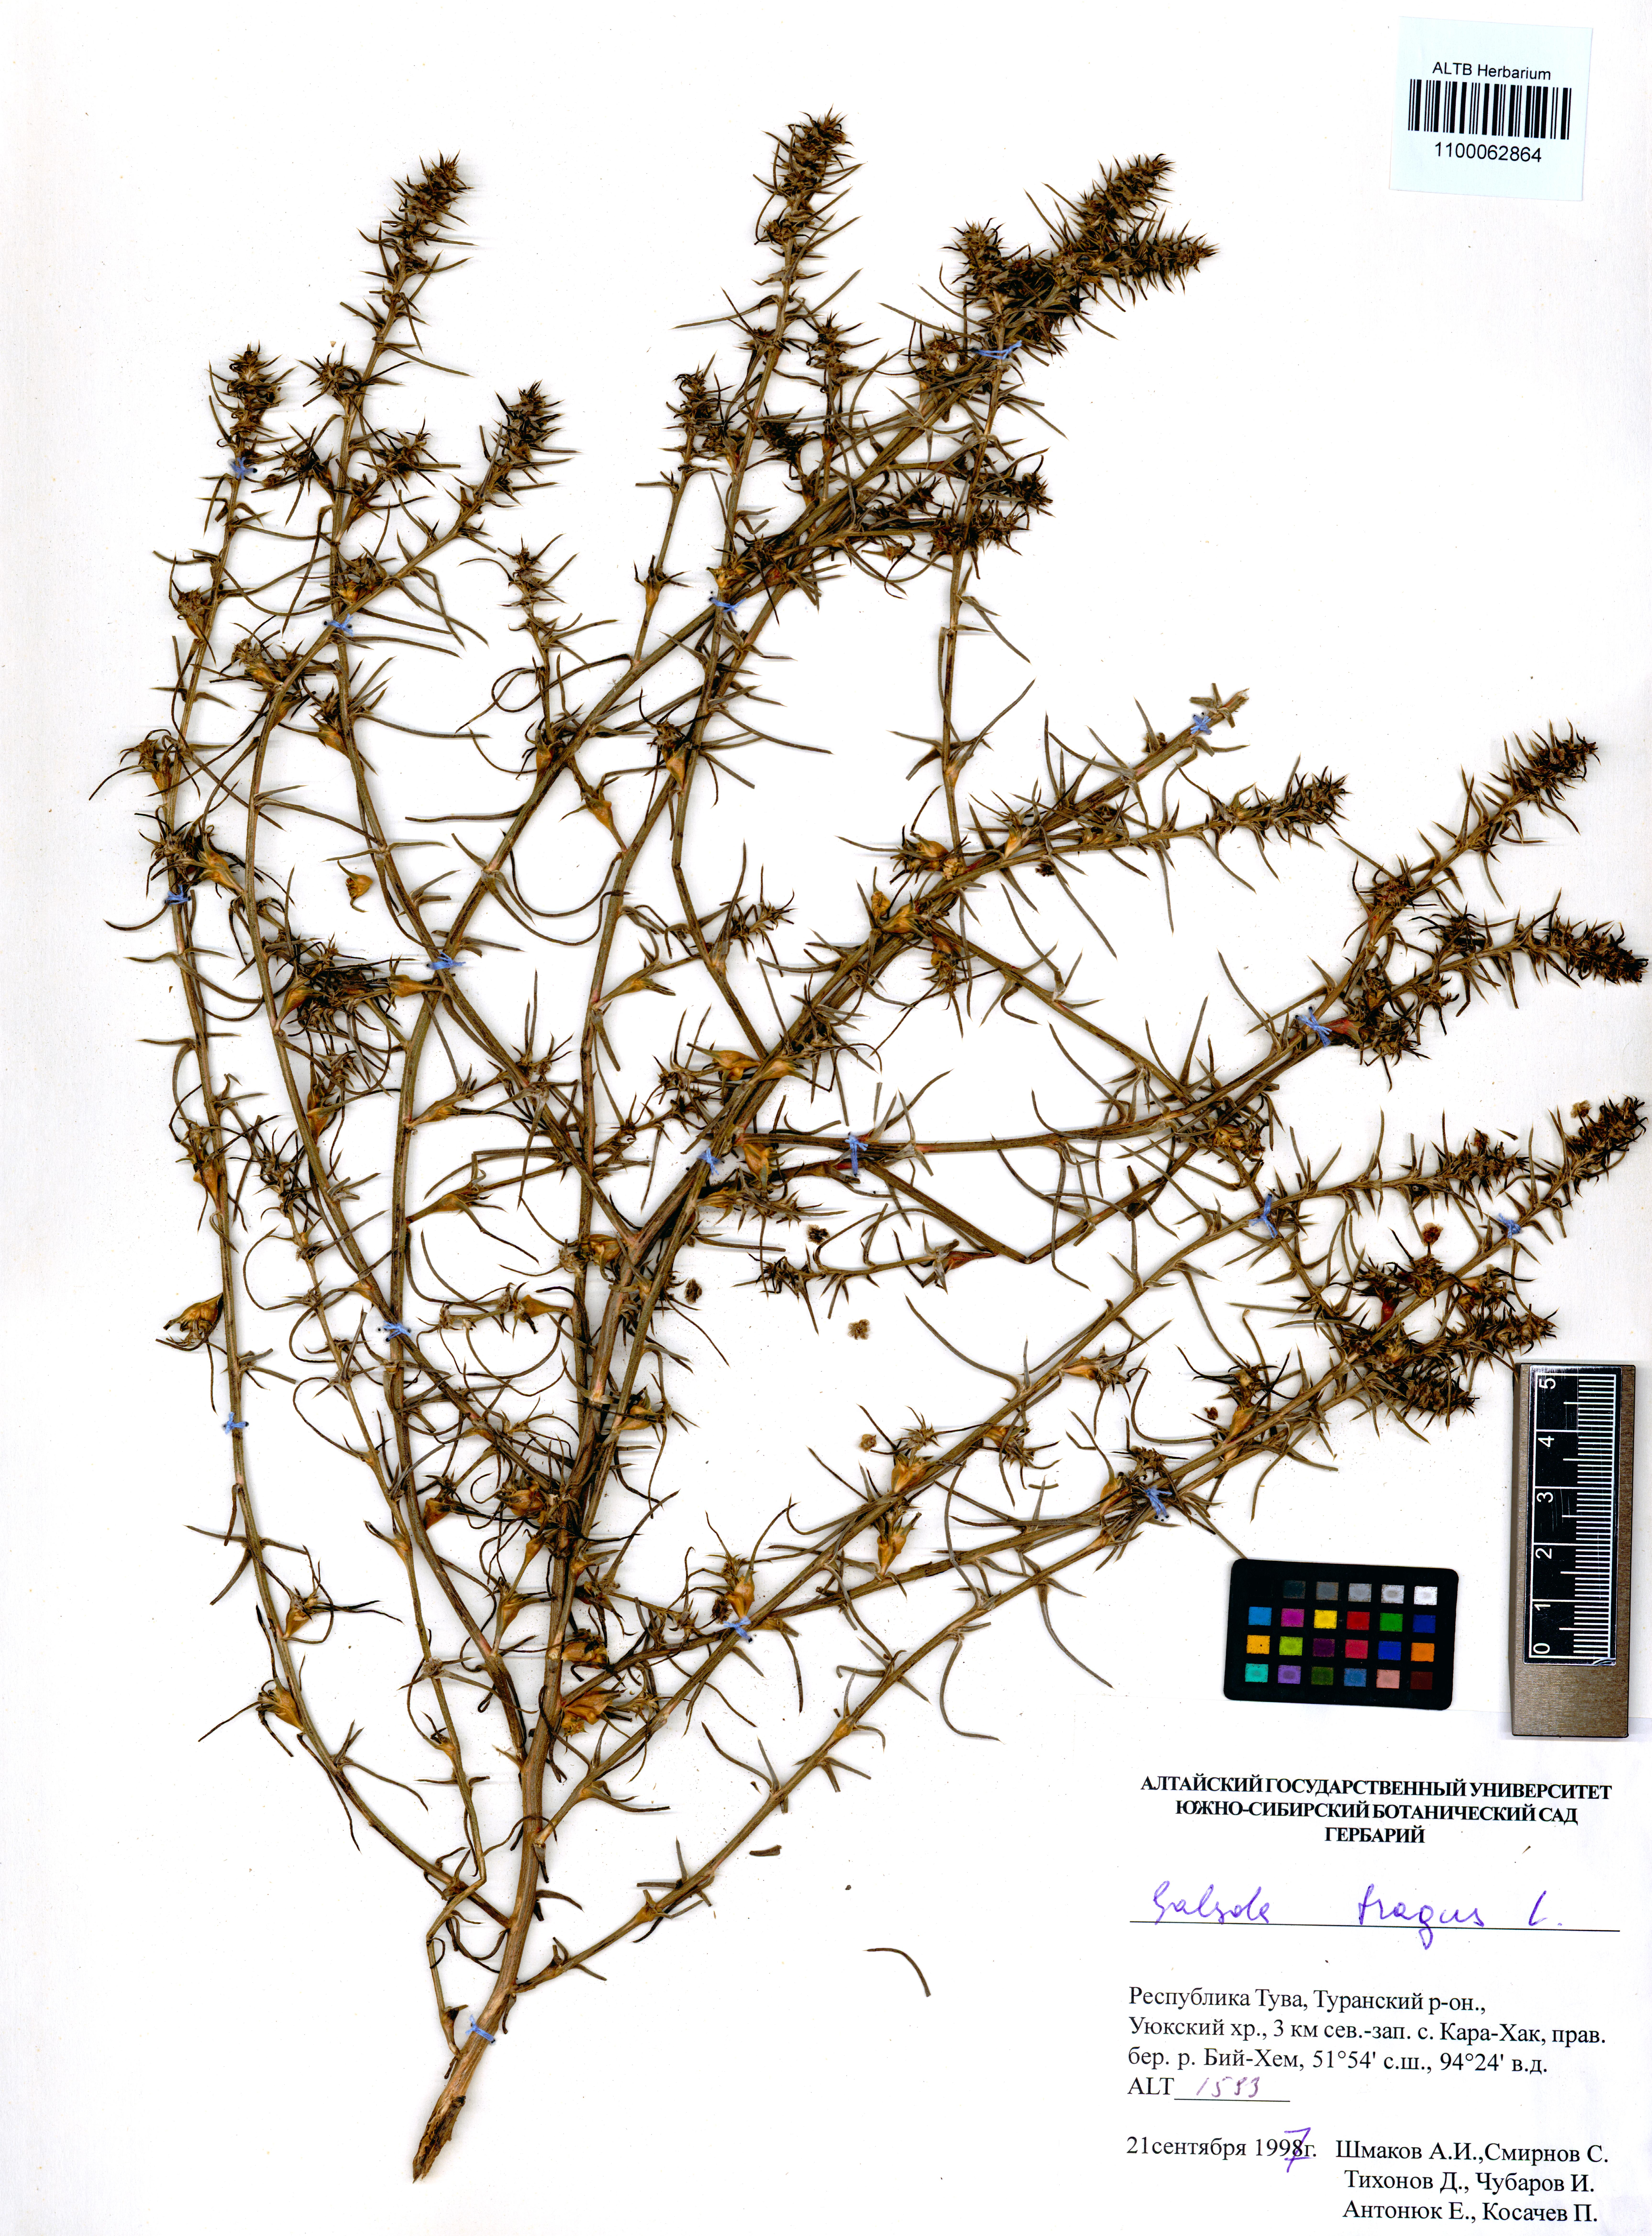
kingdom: Plantae
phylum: Tracheophyta
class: Magnoliopsida
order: Caryophyllales
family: Amaranthaceae
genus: Salsola
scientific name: Salsola tragus
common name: Prickly russian thistle
